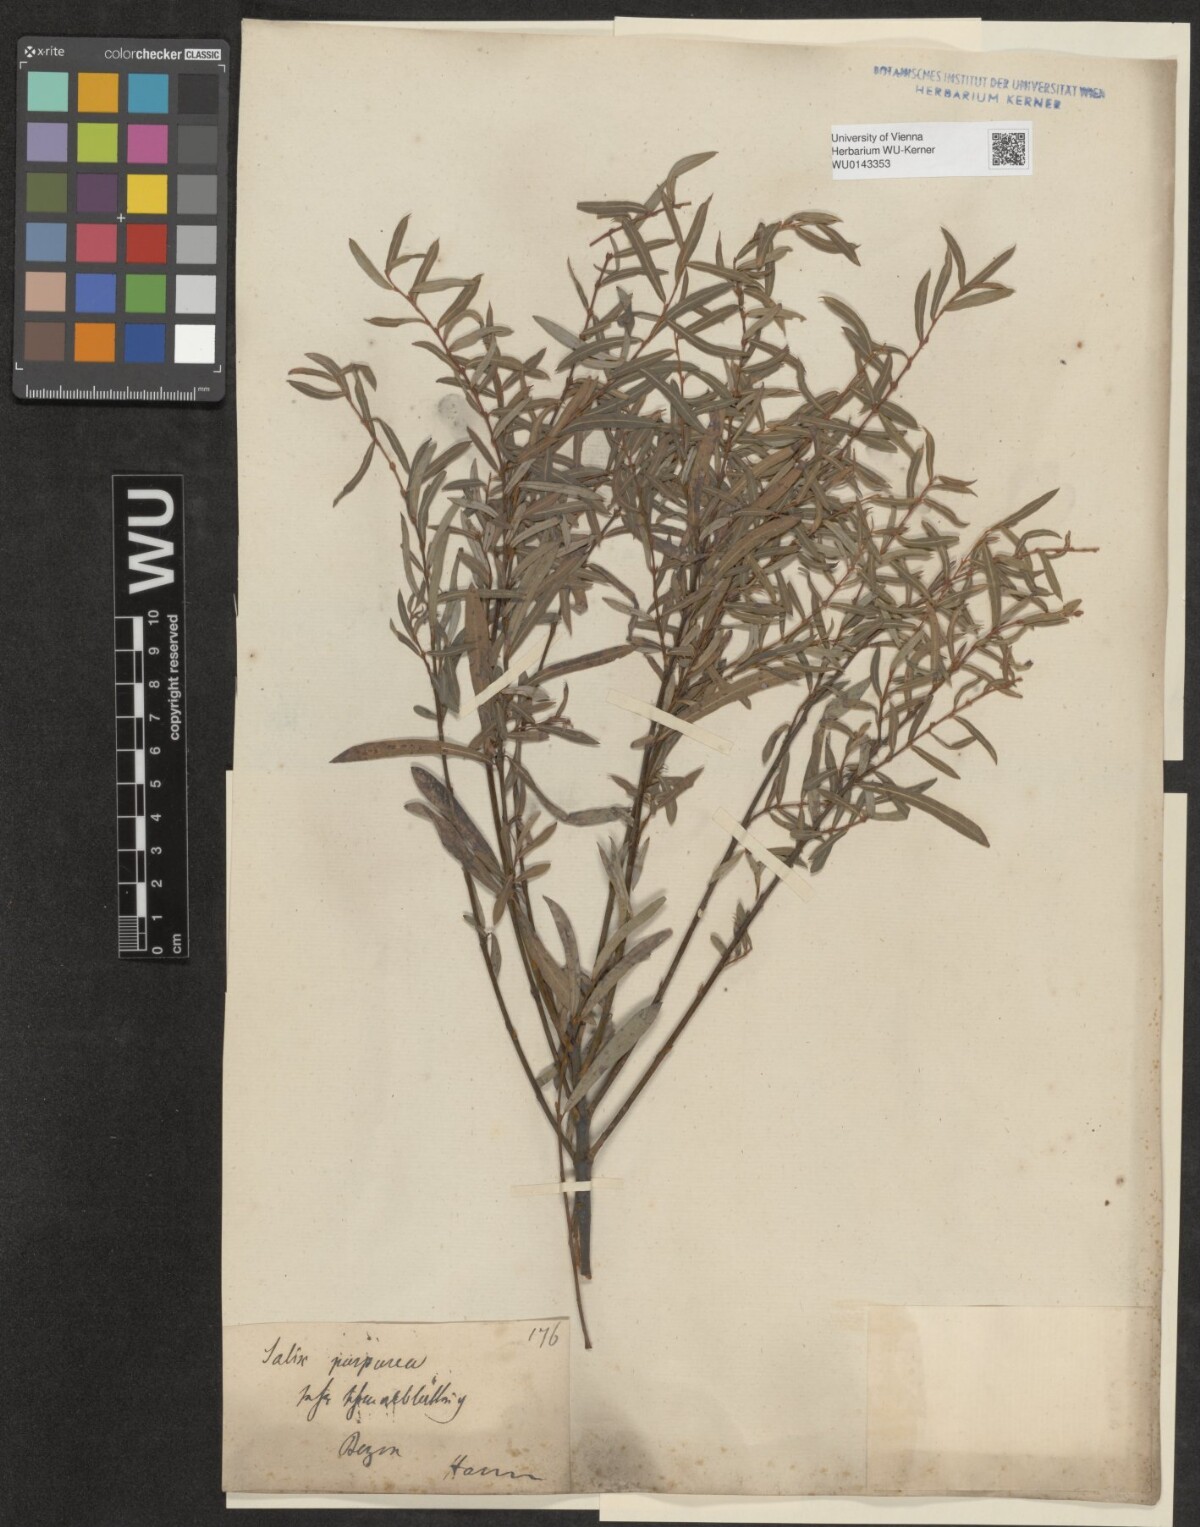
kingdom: Plantae
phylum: Tracheophyta
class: Magnoliopsida
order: Malpighiales
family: Salicaceae
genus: Salix
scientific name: Salix purpurea
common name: Purple willow
